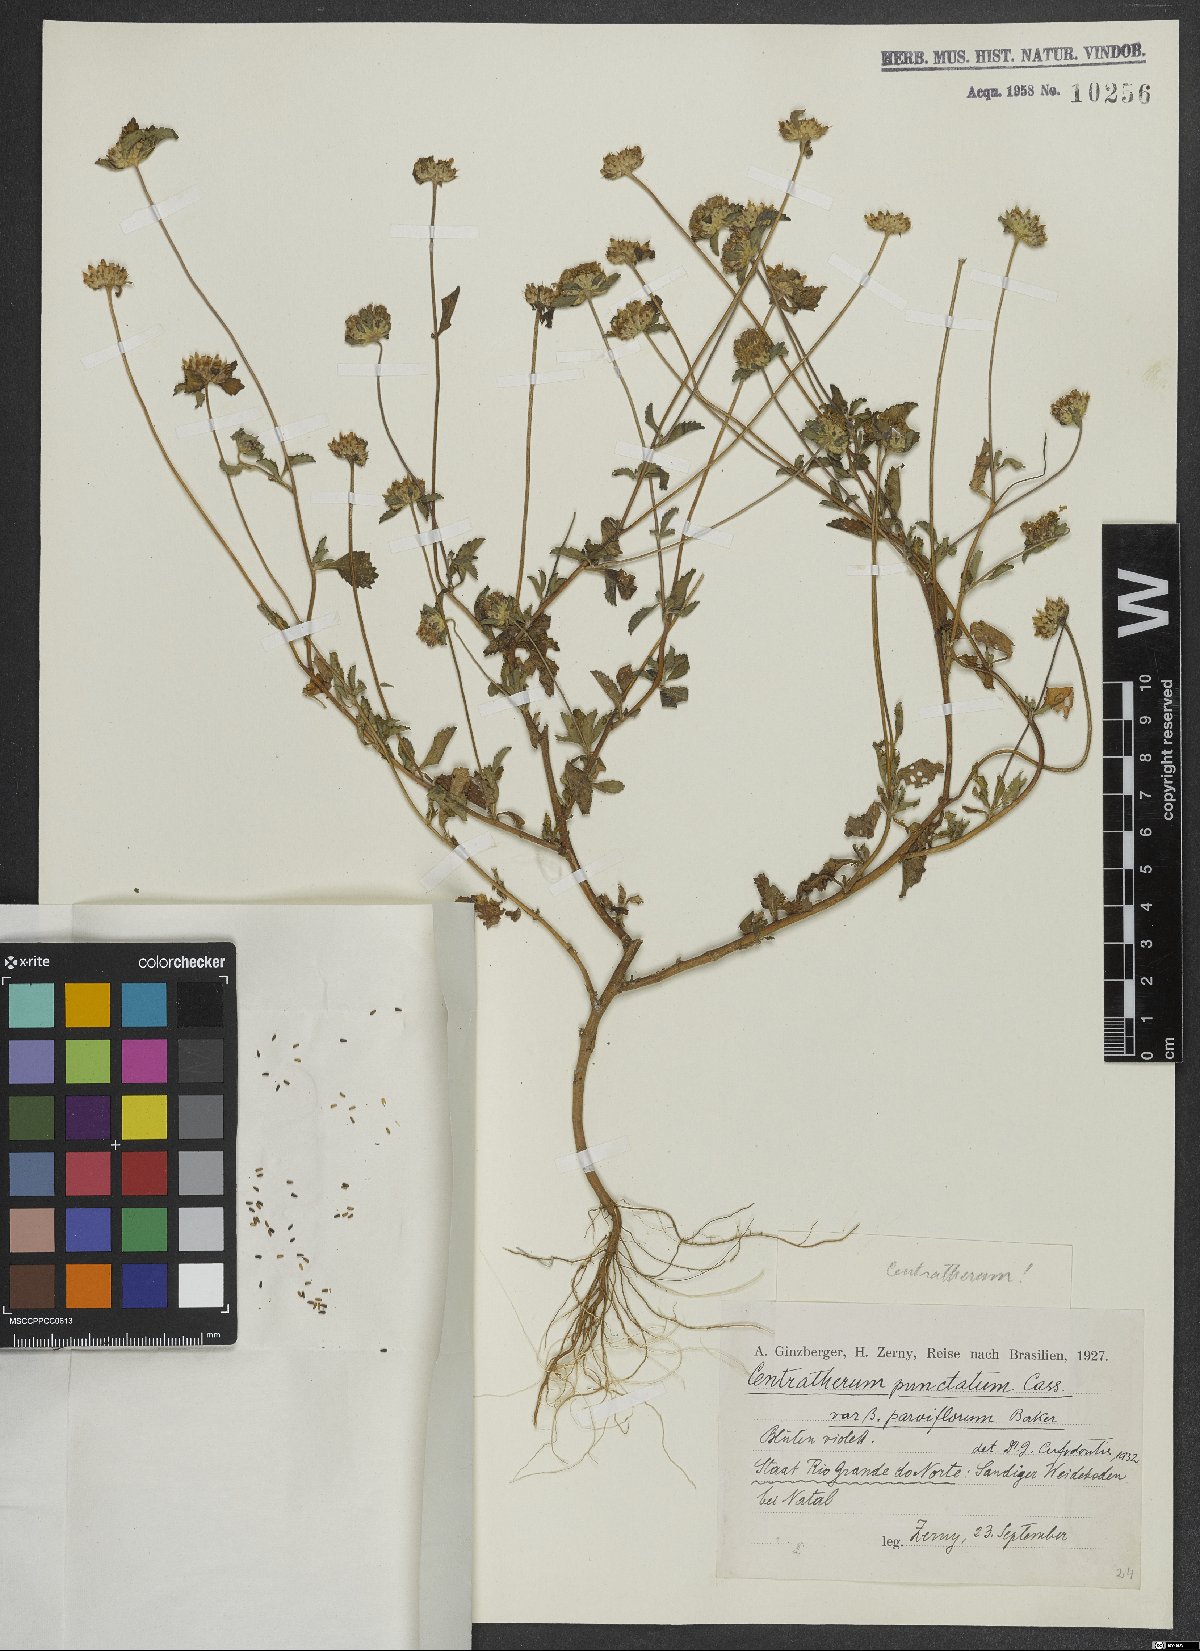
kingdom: Plantae
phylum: Tracheophyta
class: Magnoliopsida
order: Asterales
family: Asteraceae
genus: Centratherum
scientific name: Centratherum punctatum
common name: Larkdaisy
